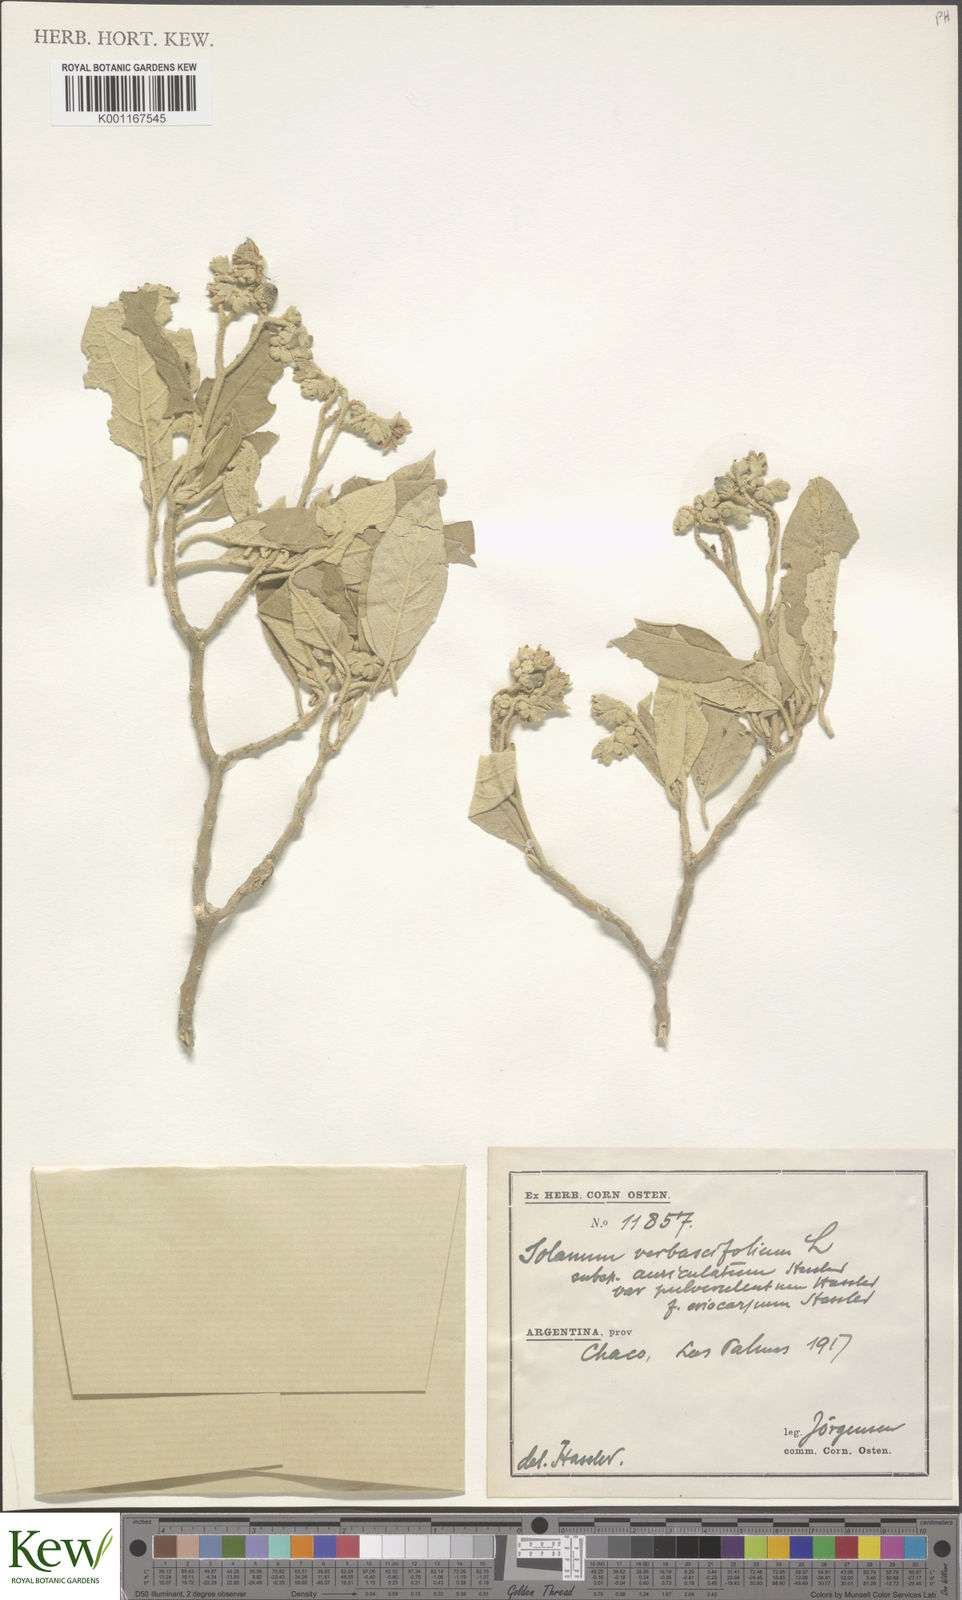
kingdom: Plantae
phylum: Tracheophyta
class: Magnoliopsida
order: Solanales
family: Solanaceae
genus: Solanum
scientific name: Solanum erianthum
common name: Tobacco-tree
